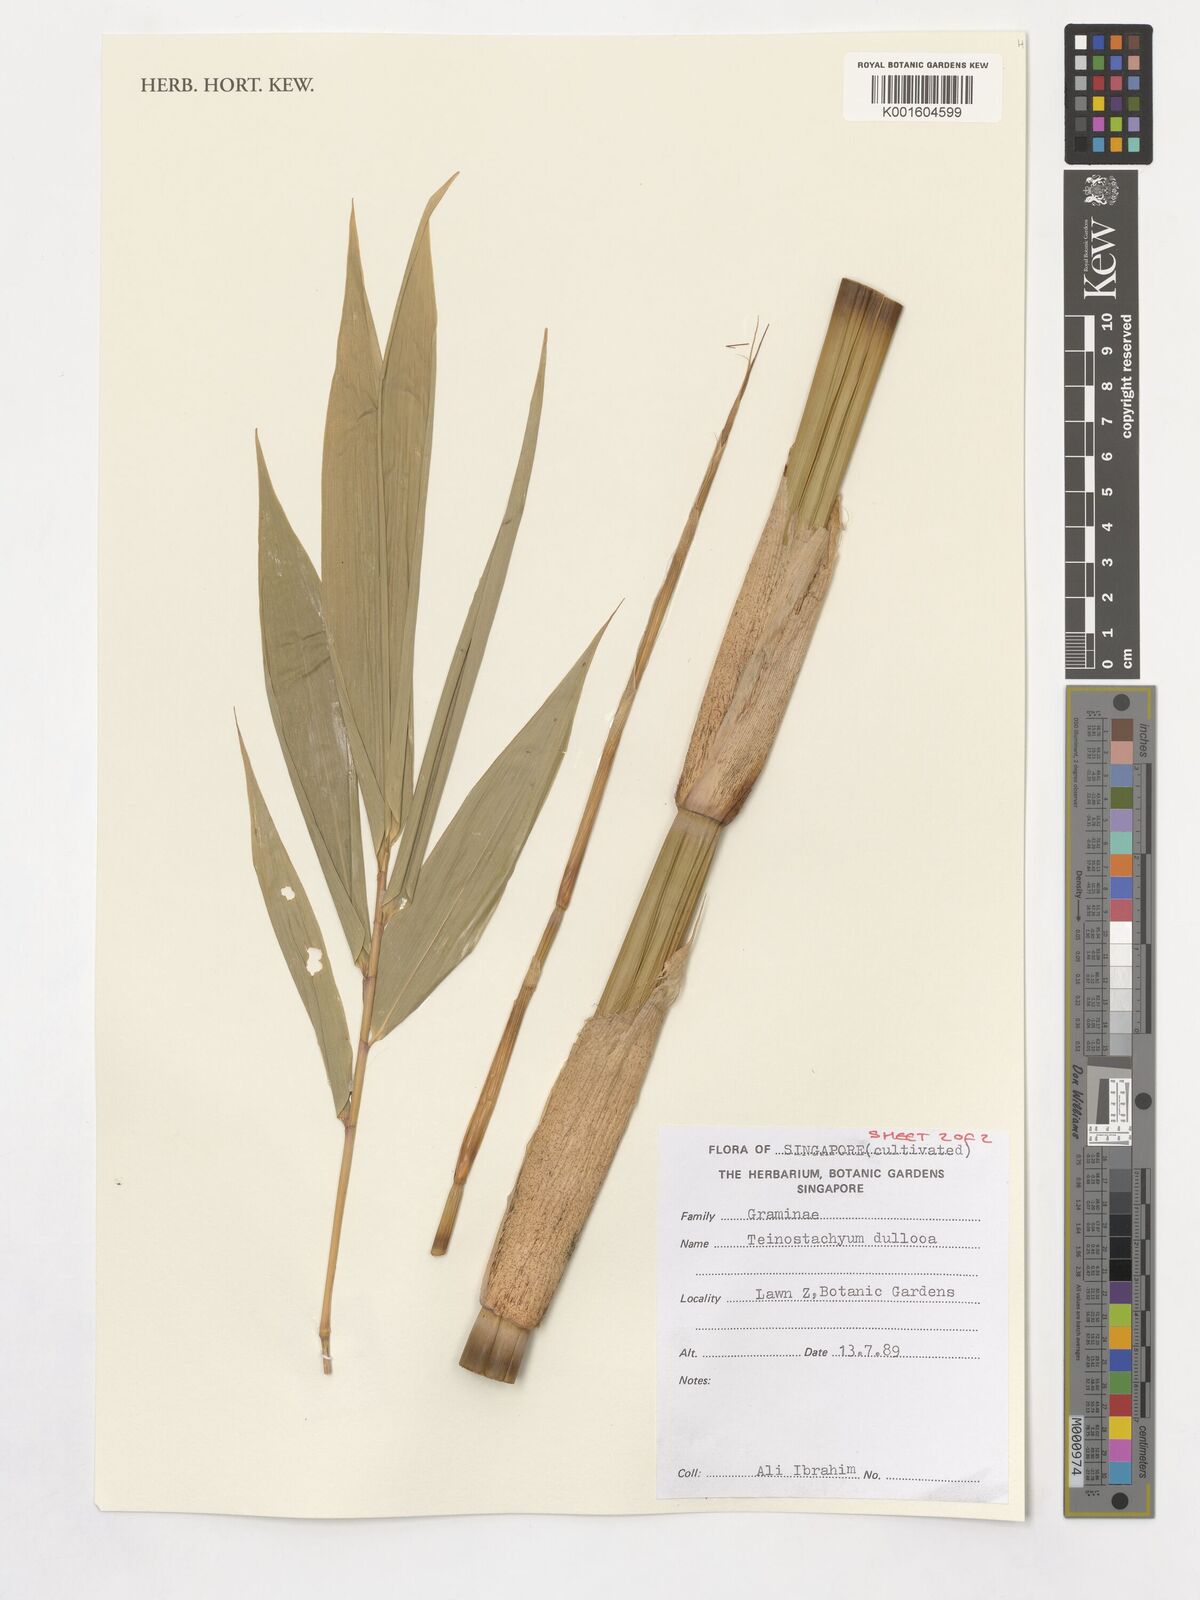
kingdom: Plantae
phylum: Tracheophyta
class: Liliopsida
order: Poales
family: Poaceae
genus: Schizostachyum
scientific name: Schizostachyum dullooa
